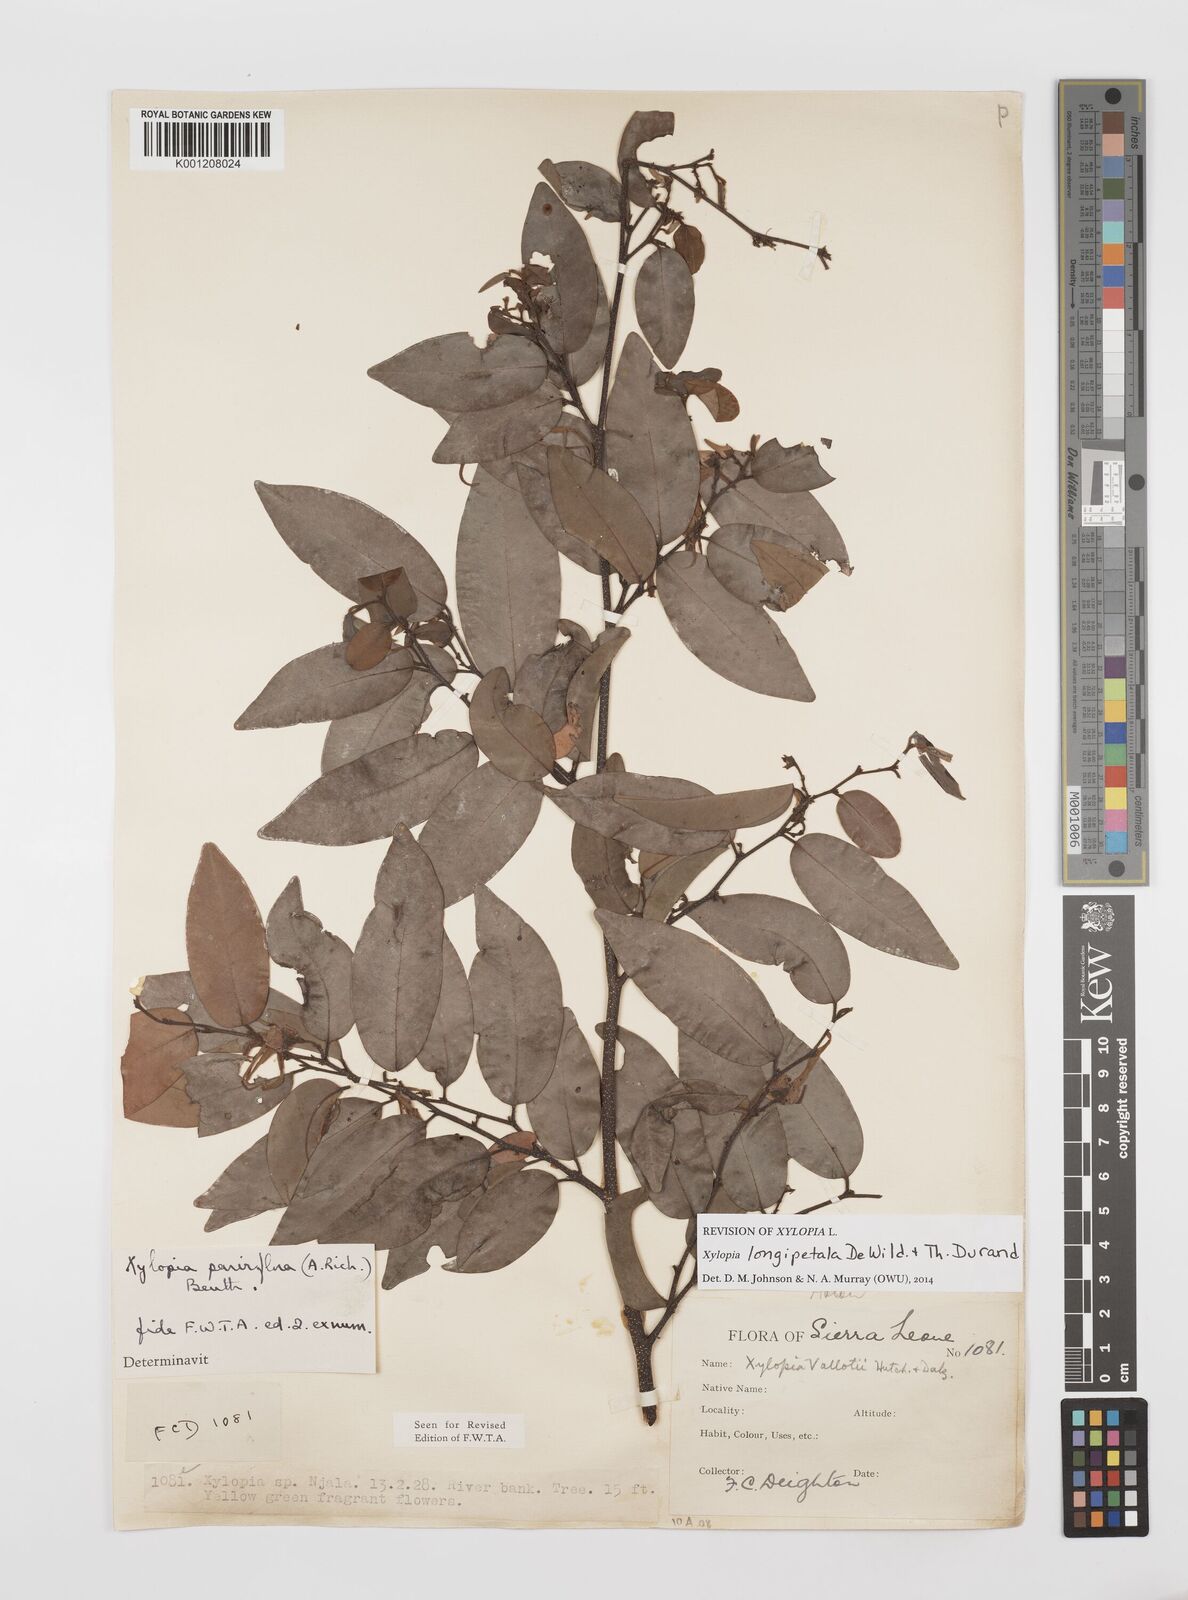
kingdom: Plantae
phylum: Tracheophyta
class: Magnoliopsida
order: Magnoliales
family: Annonaceae
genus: Xylopia
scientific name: Xylopia parviflora
